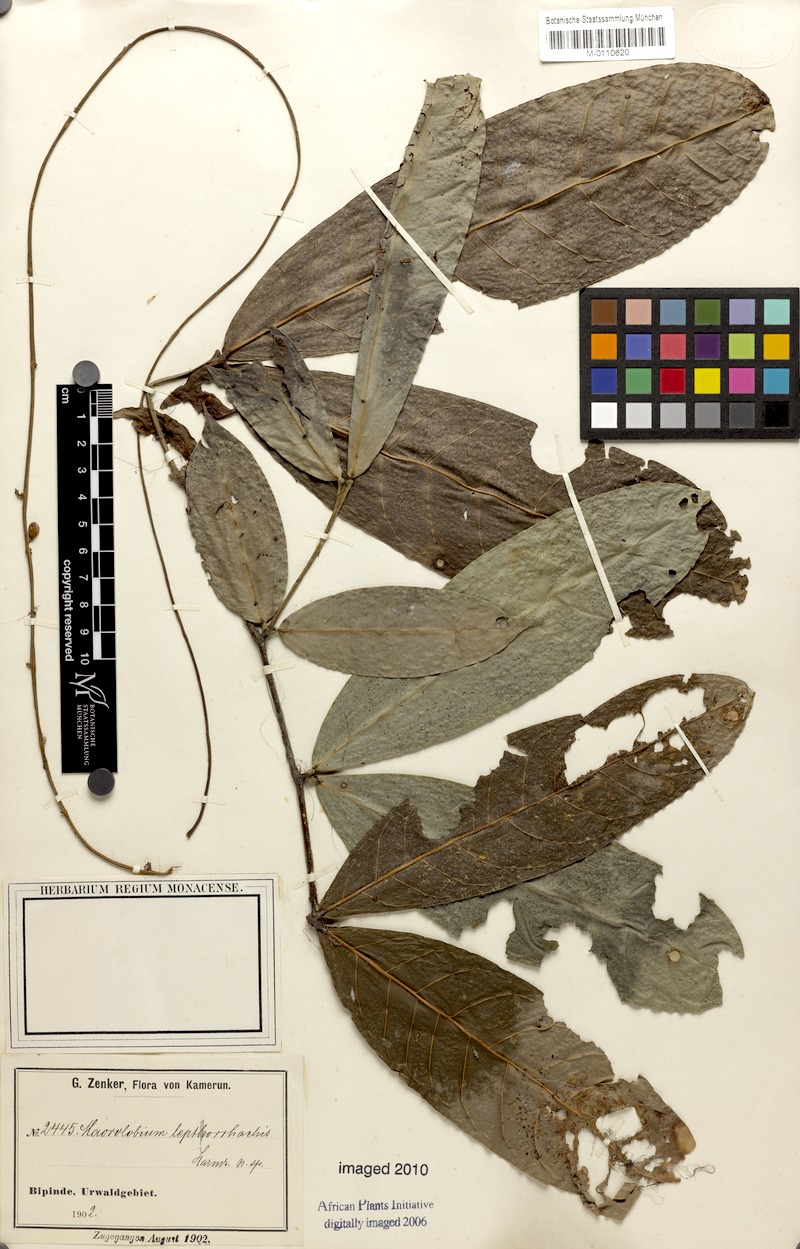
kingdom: Plantae
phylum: Tracheophyta
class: Magnoliopsida
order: Fabales
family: Fabaceae
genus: Englerodendron
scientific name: Englerodendron leptorrhachis
